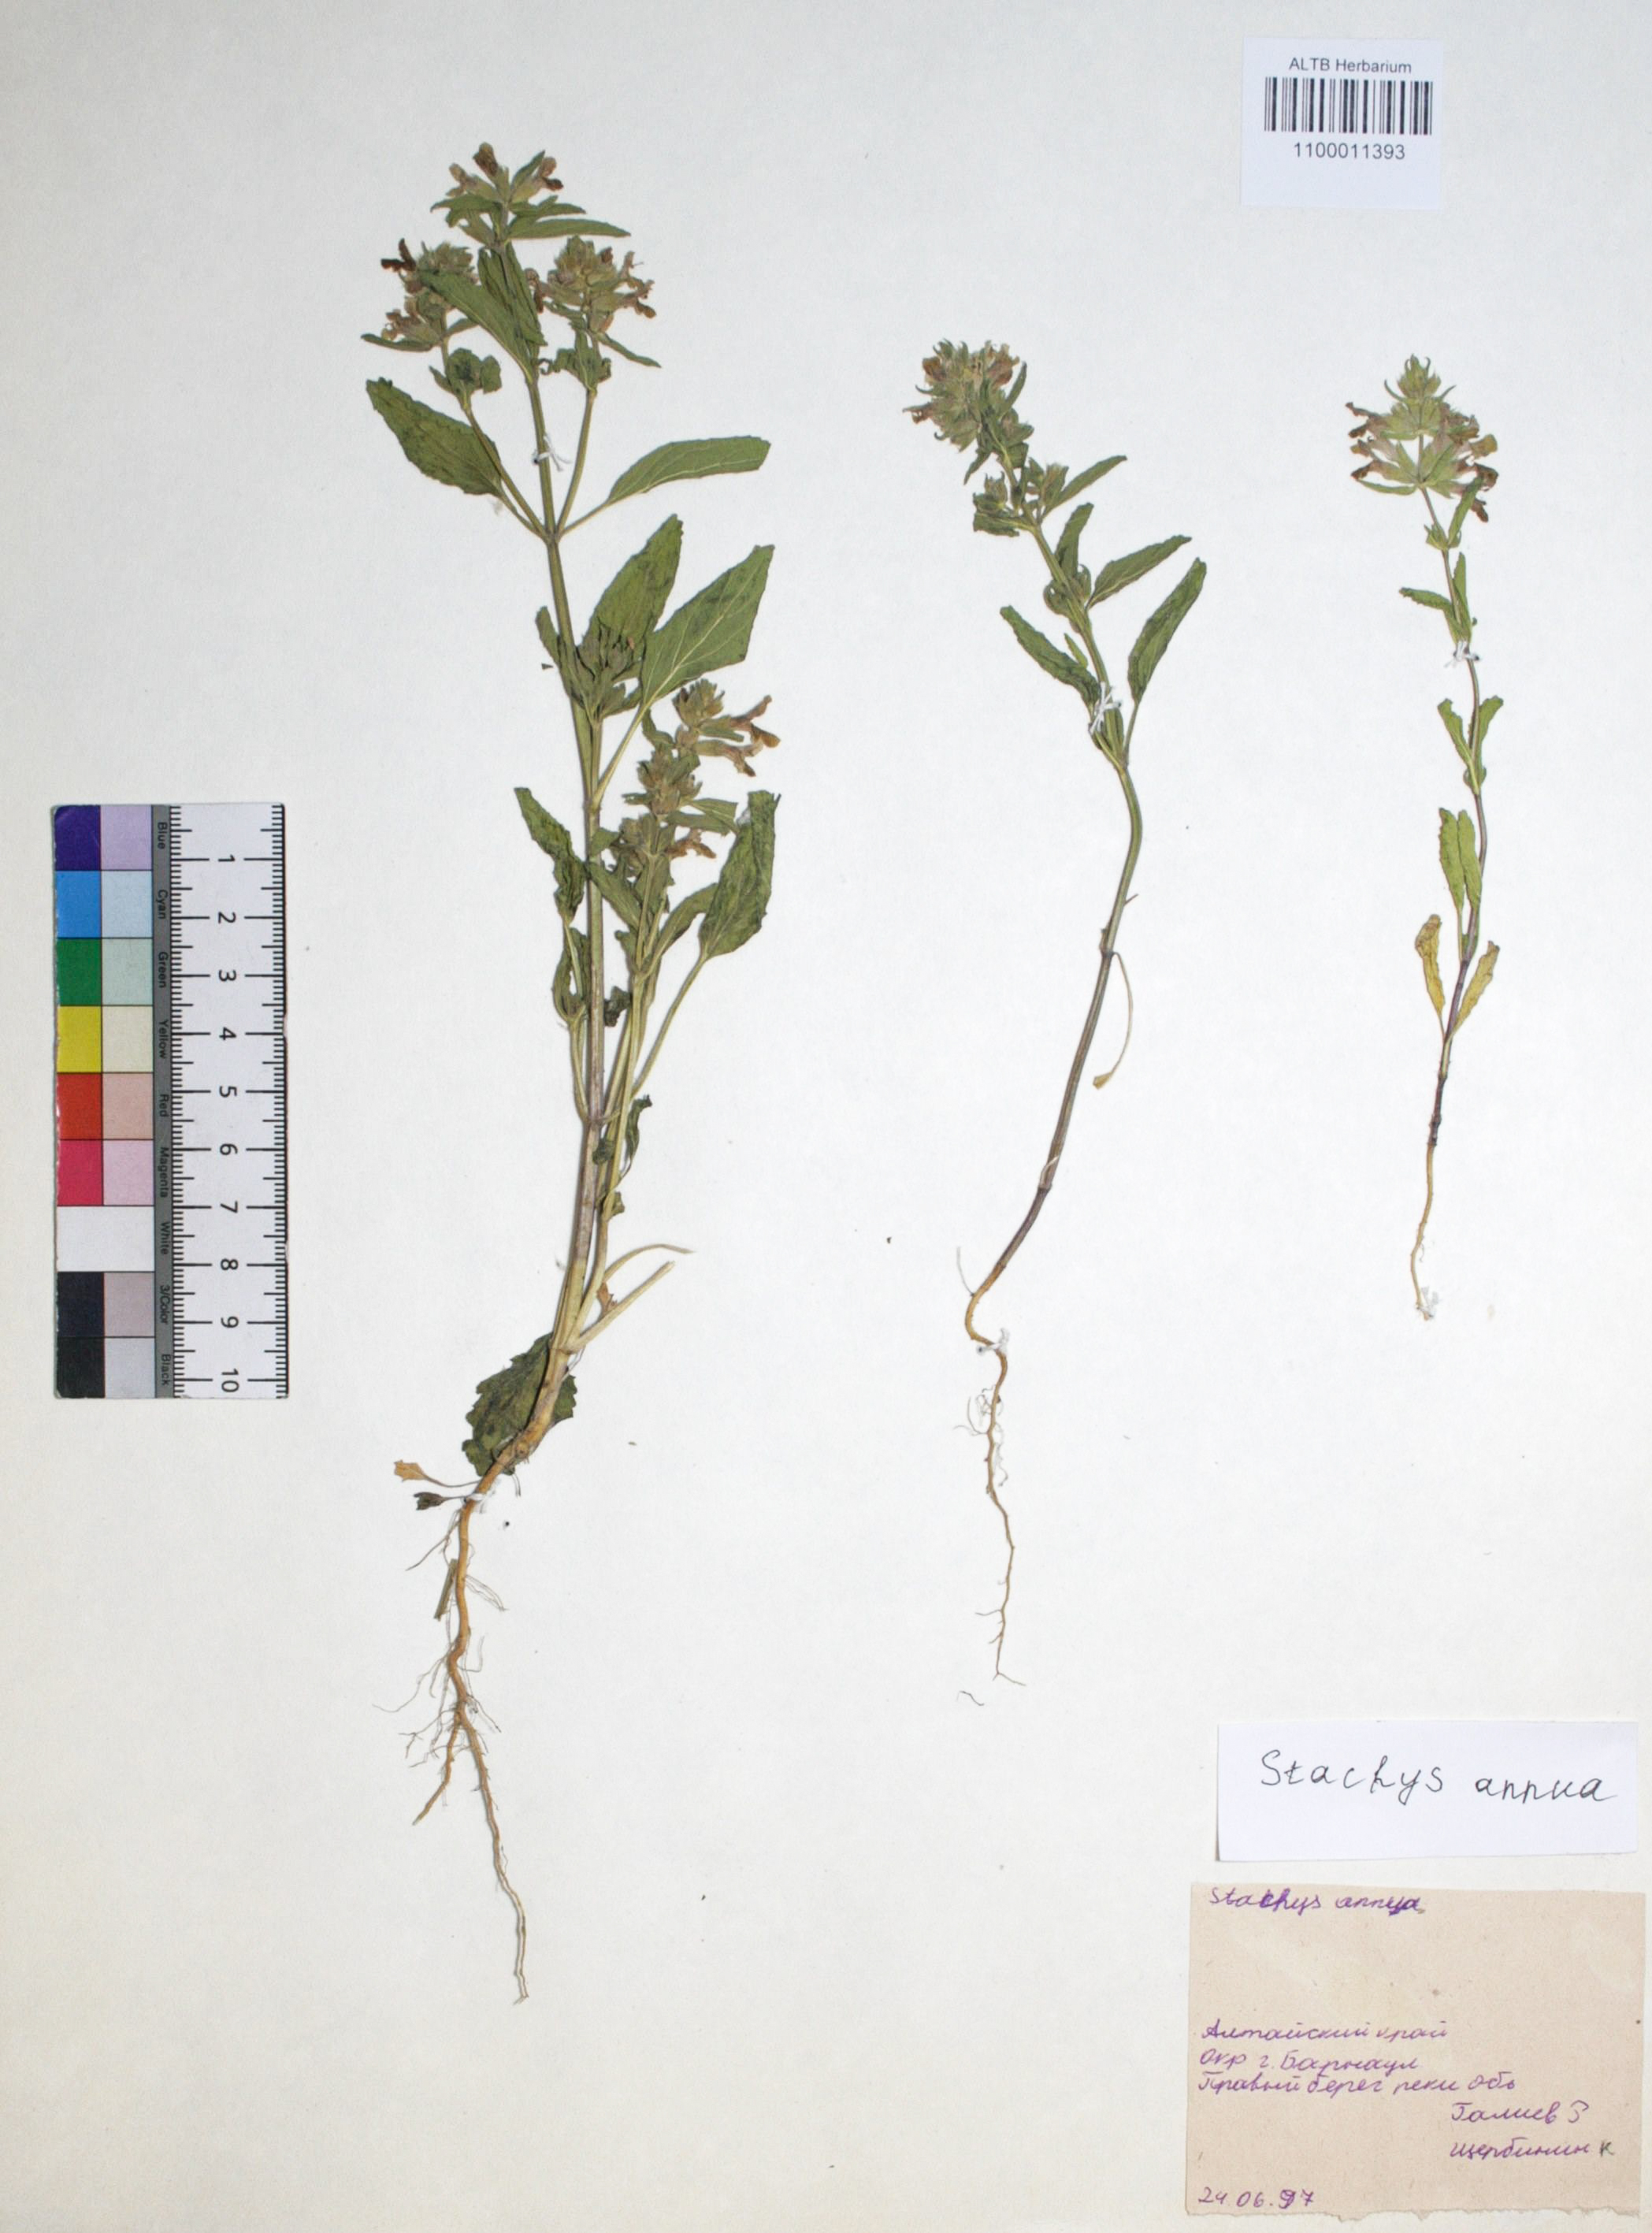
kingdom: Plantae
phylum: Tracheophyta
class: Magnoliopsida
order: Lamiales
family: Lamiaceae
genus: Stachys
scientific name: Stachys annua
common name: Annual yellow-woundwort
